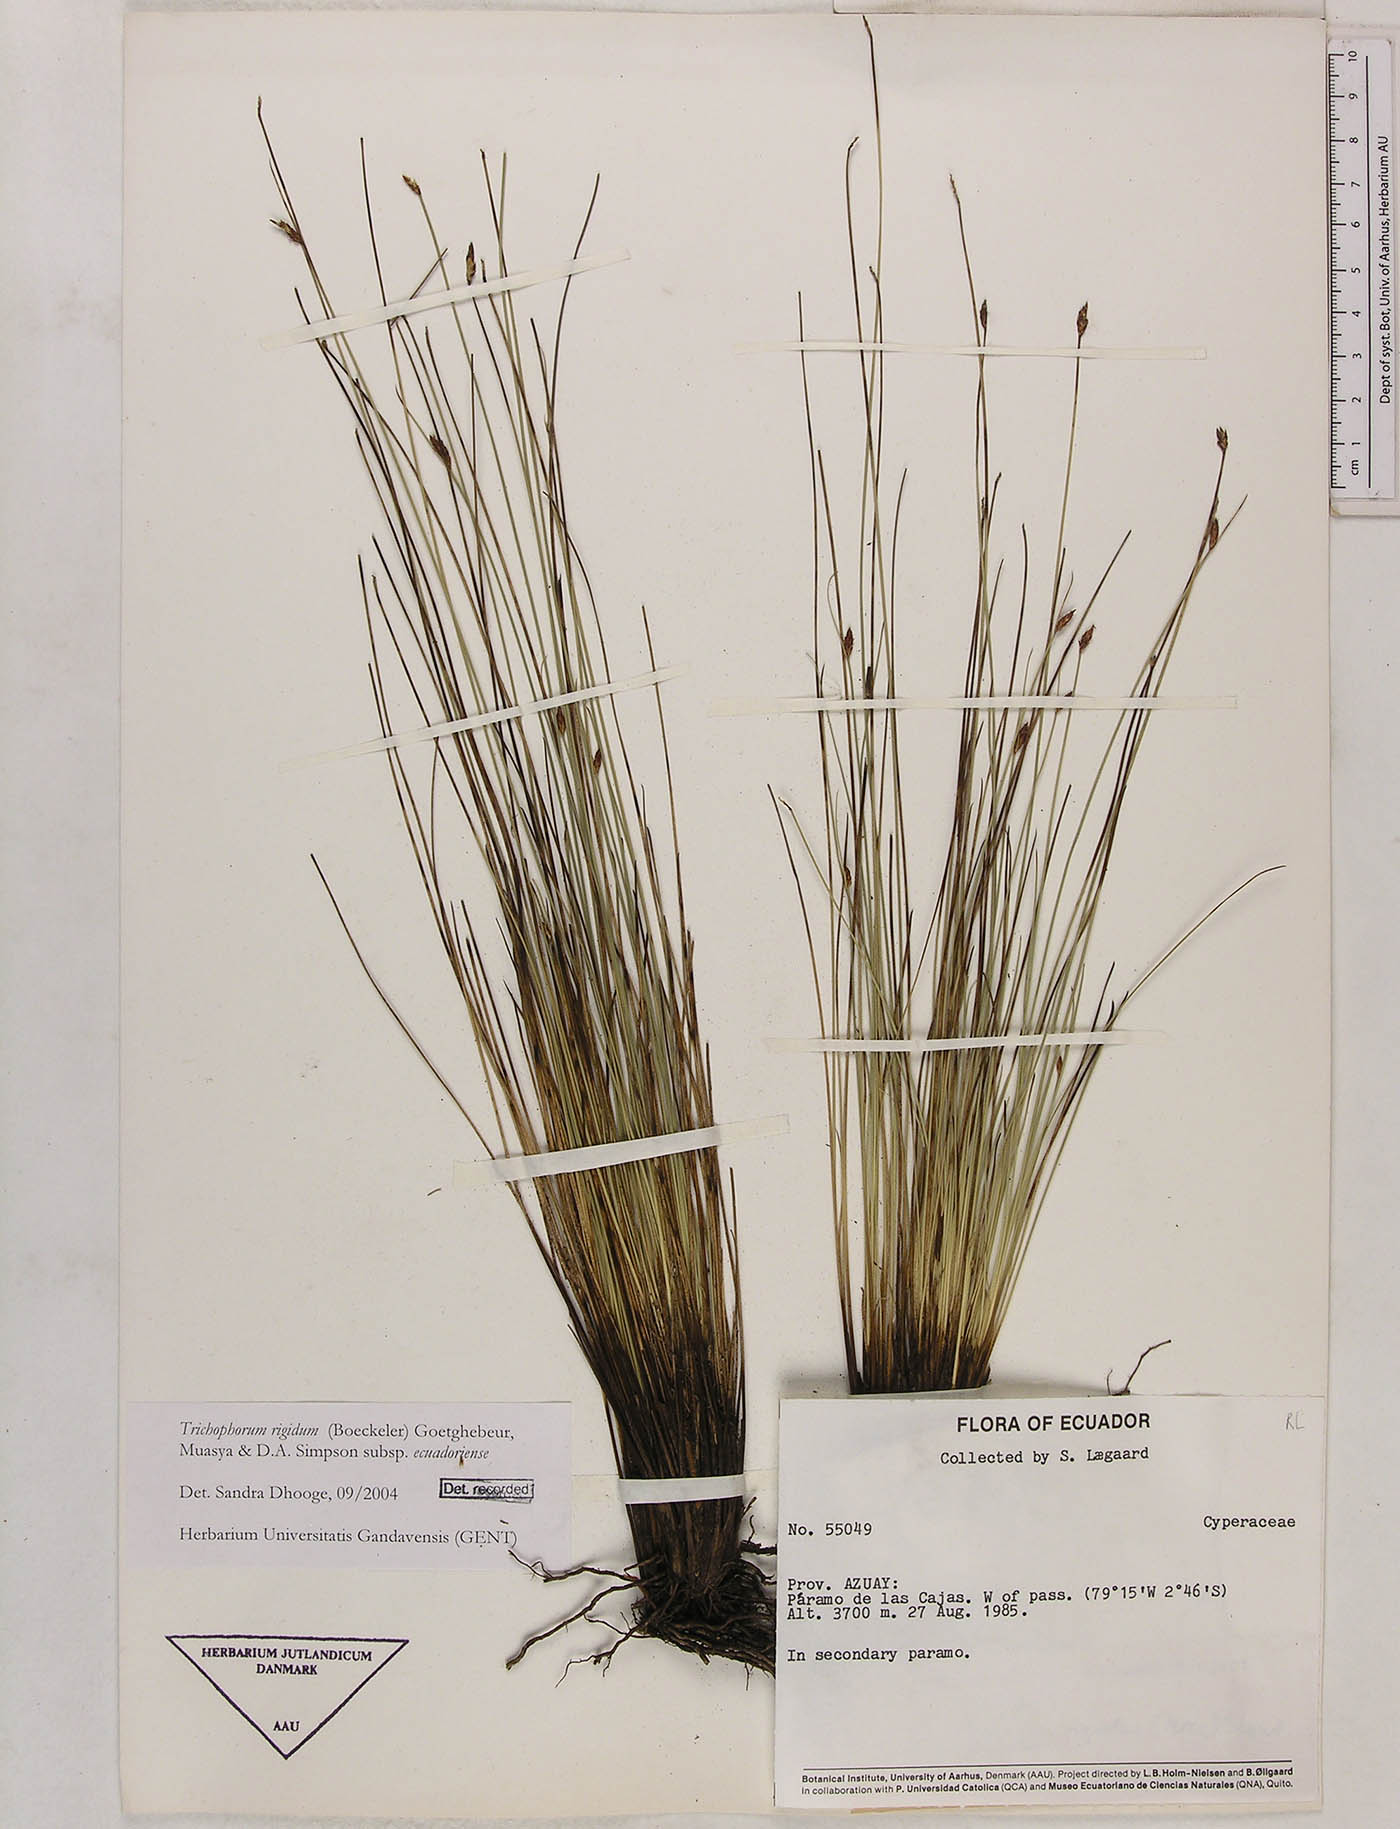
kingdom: Plantae
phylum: Tracheophyta
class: Liliopsida
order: Poales
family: Cyperaceae
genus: Trichophorum
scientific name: Trichophorum rigidum
